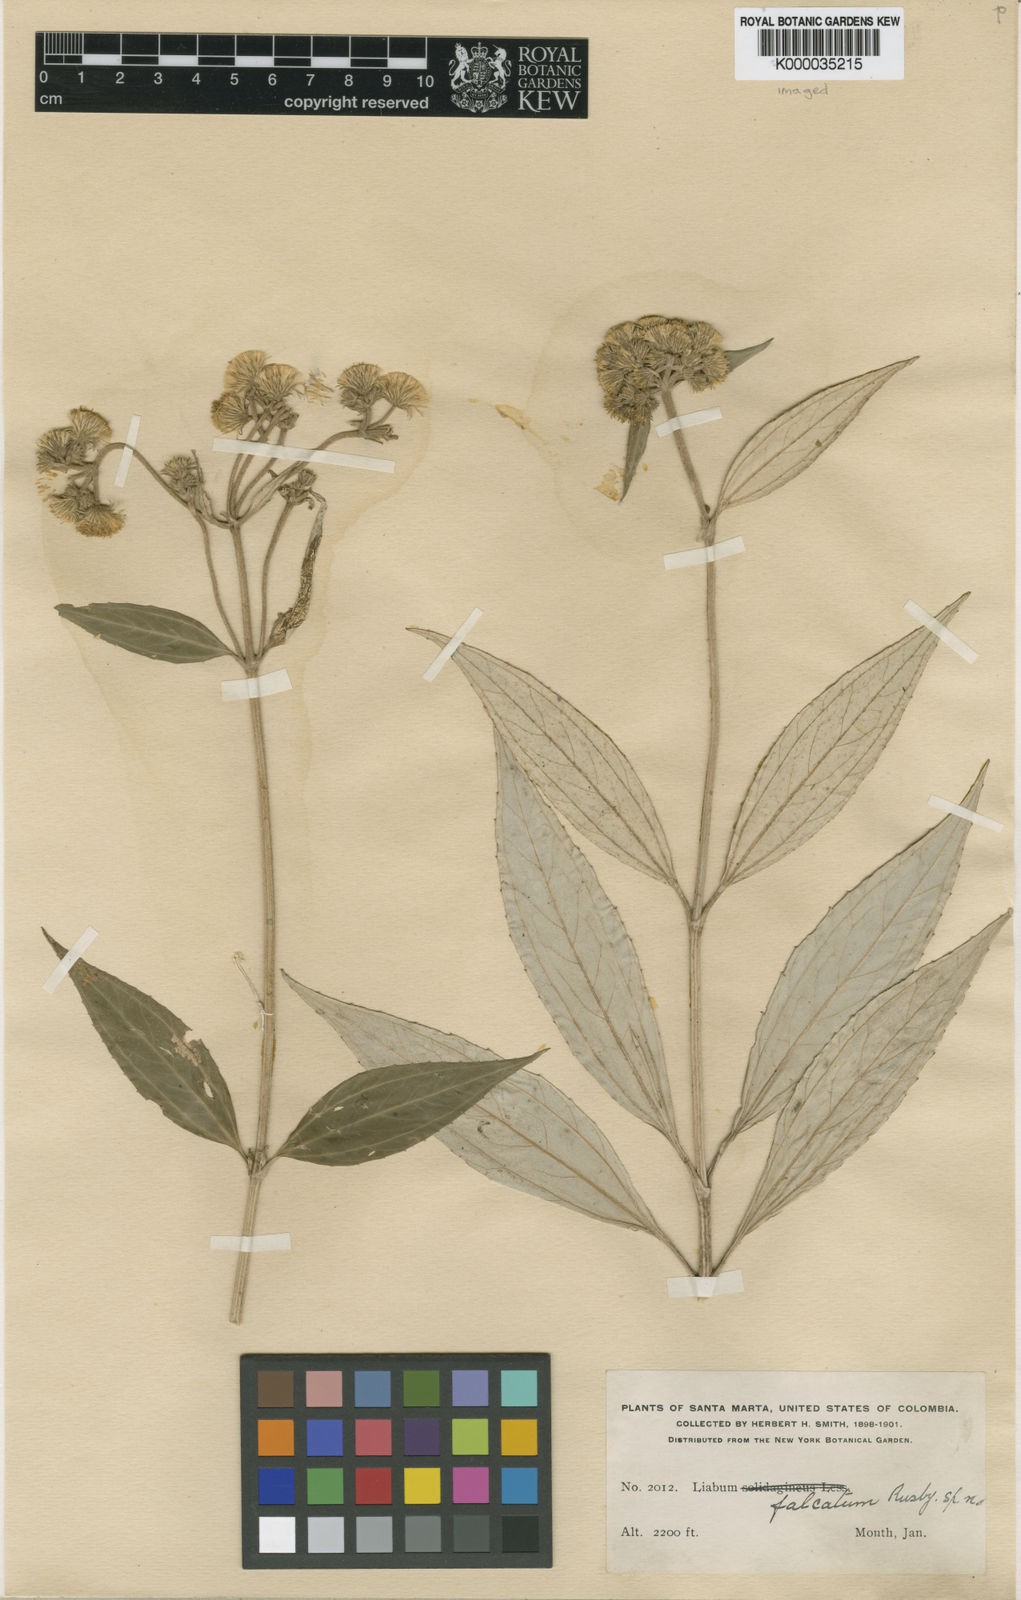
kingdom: Plantae
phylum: Tracheophyta
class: Magnoliopsida
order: Asterales
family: Asteraceae
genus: Liabum
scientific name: Liabum falcatum
